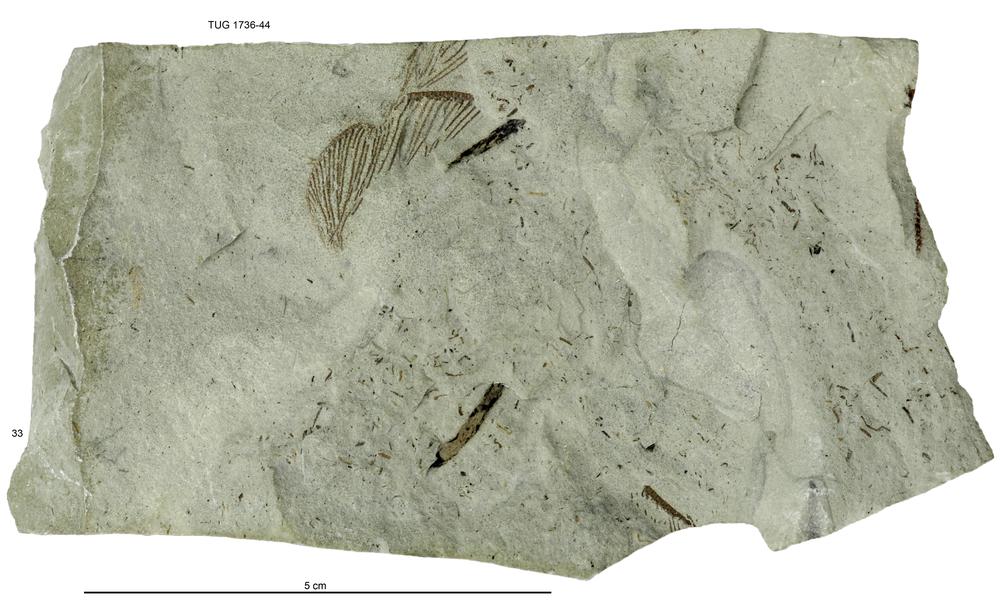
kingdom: Animalia
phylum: Echinodermata
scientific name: Echinodermata
